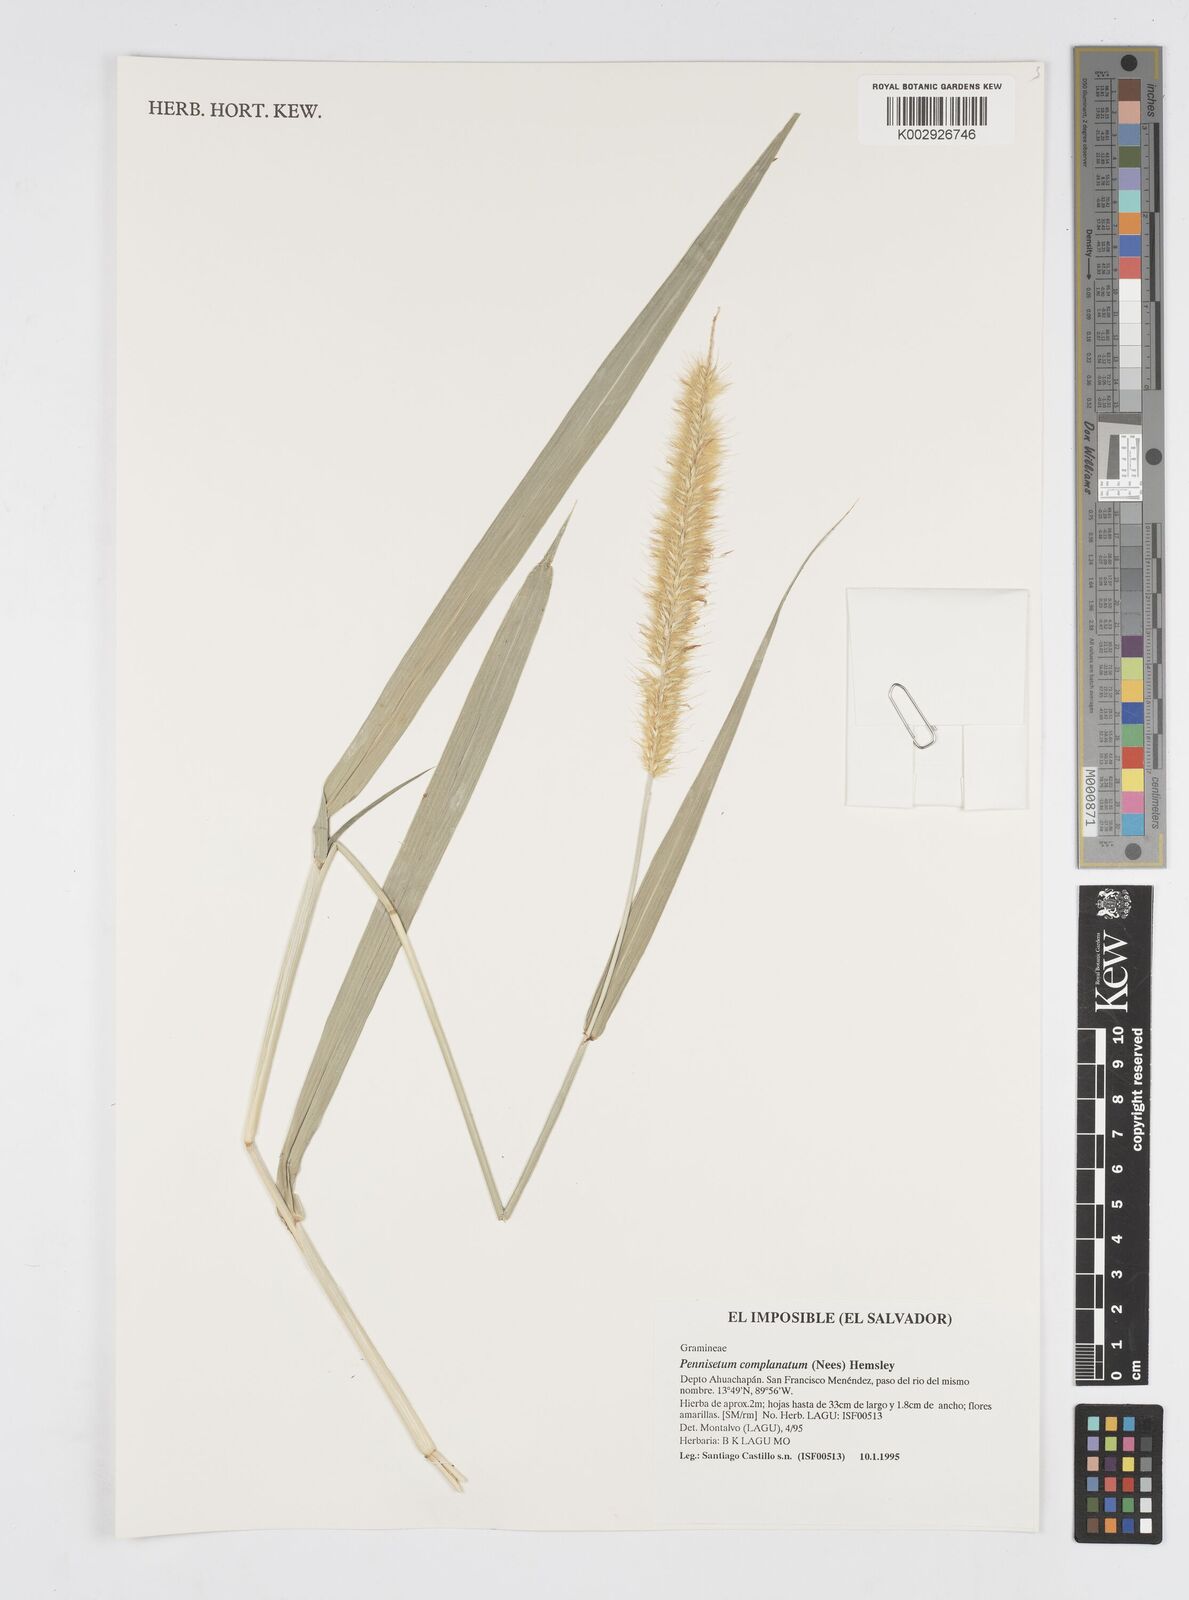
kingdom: Plantae
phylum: Tracheophyta
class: Liliopsida
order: Poales
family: Poaceae
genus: Cenchrus
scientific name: Cenchrus complanatus
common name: Nicaraguan fountaingrass
